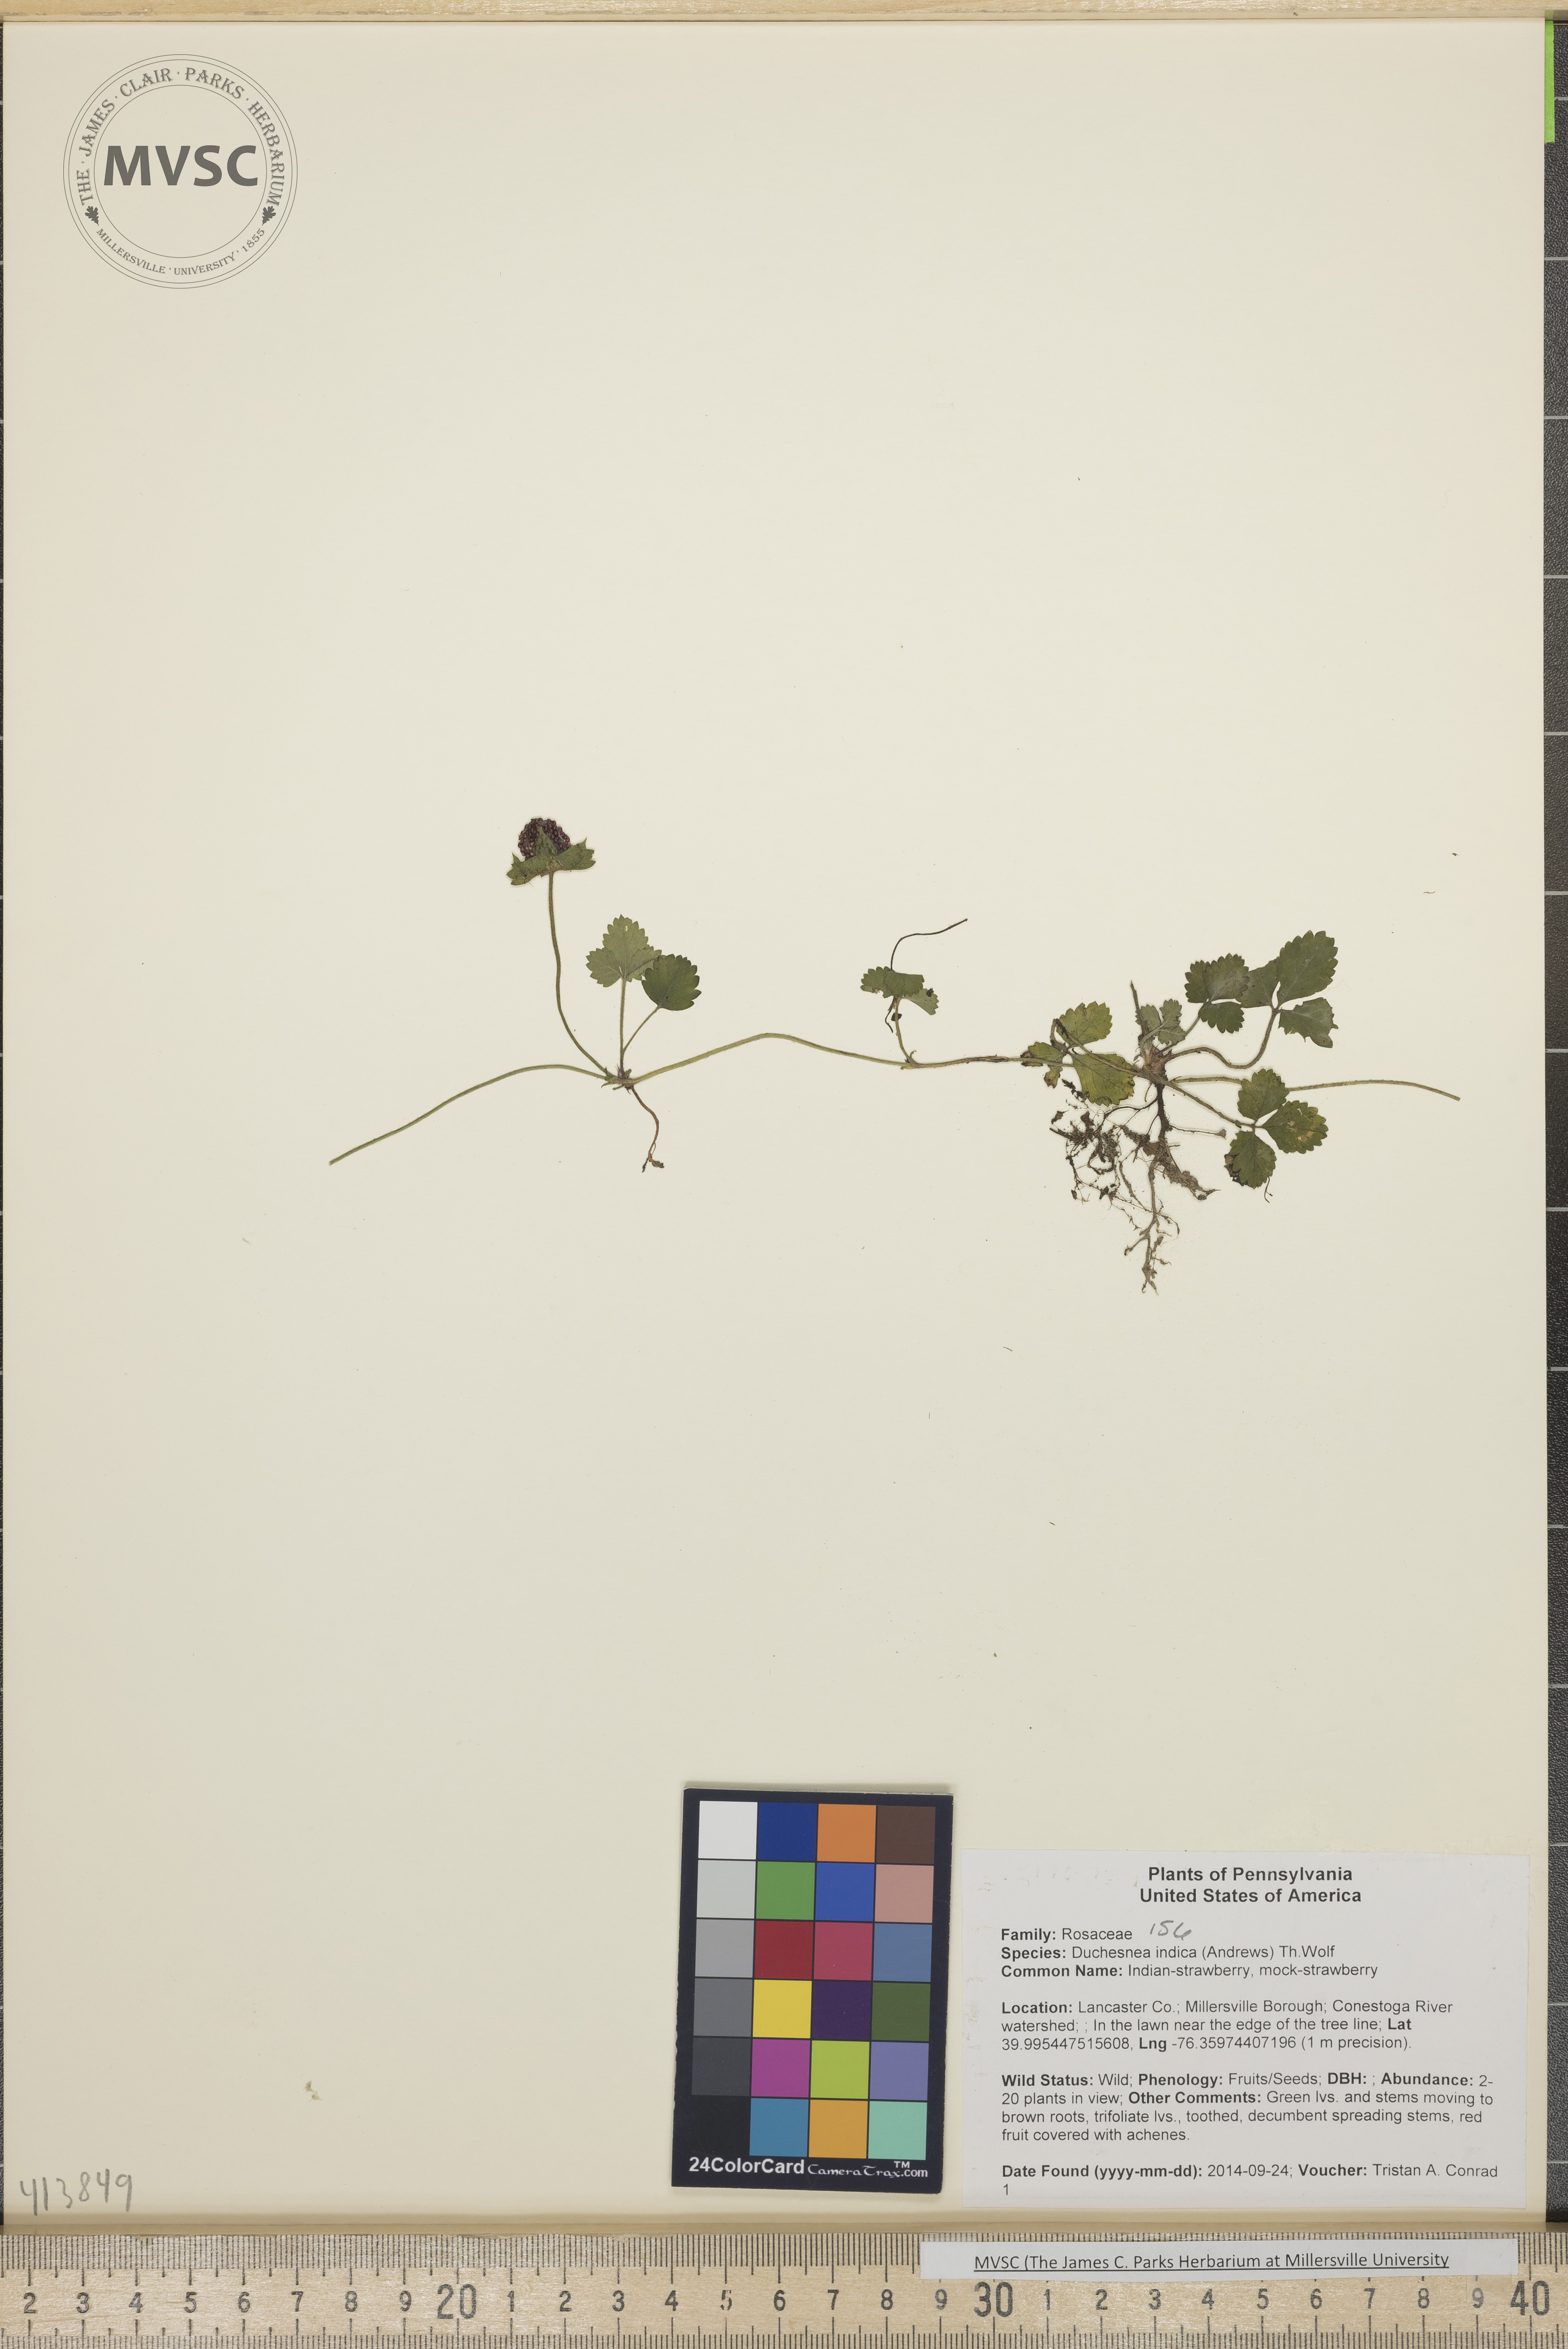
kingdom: Plantae
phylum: Tracheophyta
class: Magnoliopsida
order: Rosales
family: Rosaceae
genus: Potentilla
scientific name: Potentilla indica
